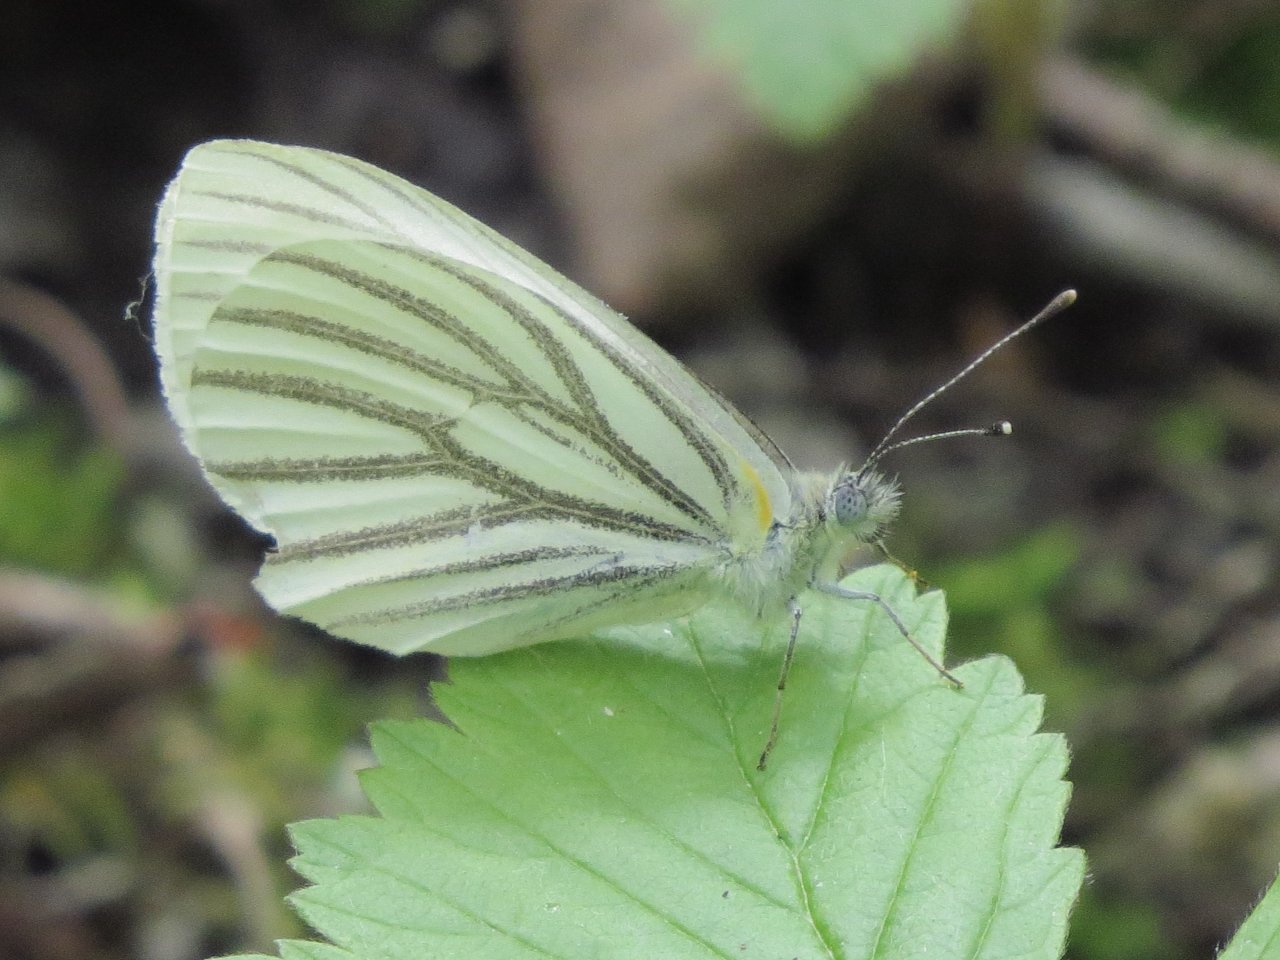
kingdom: Animalia
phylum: Arthropoda
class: Insecta
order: Lepidoptera
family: Pieridae
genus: Pieris
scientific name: Pieris oleracea
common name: Mustard White
